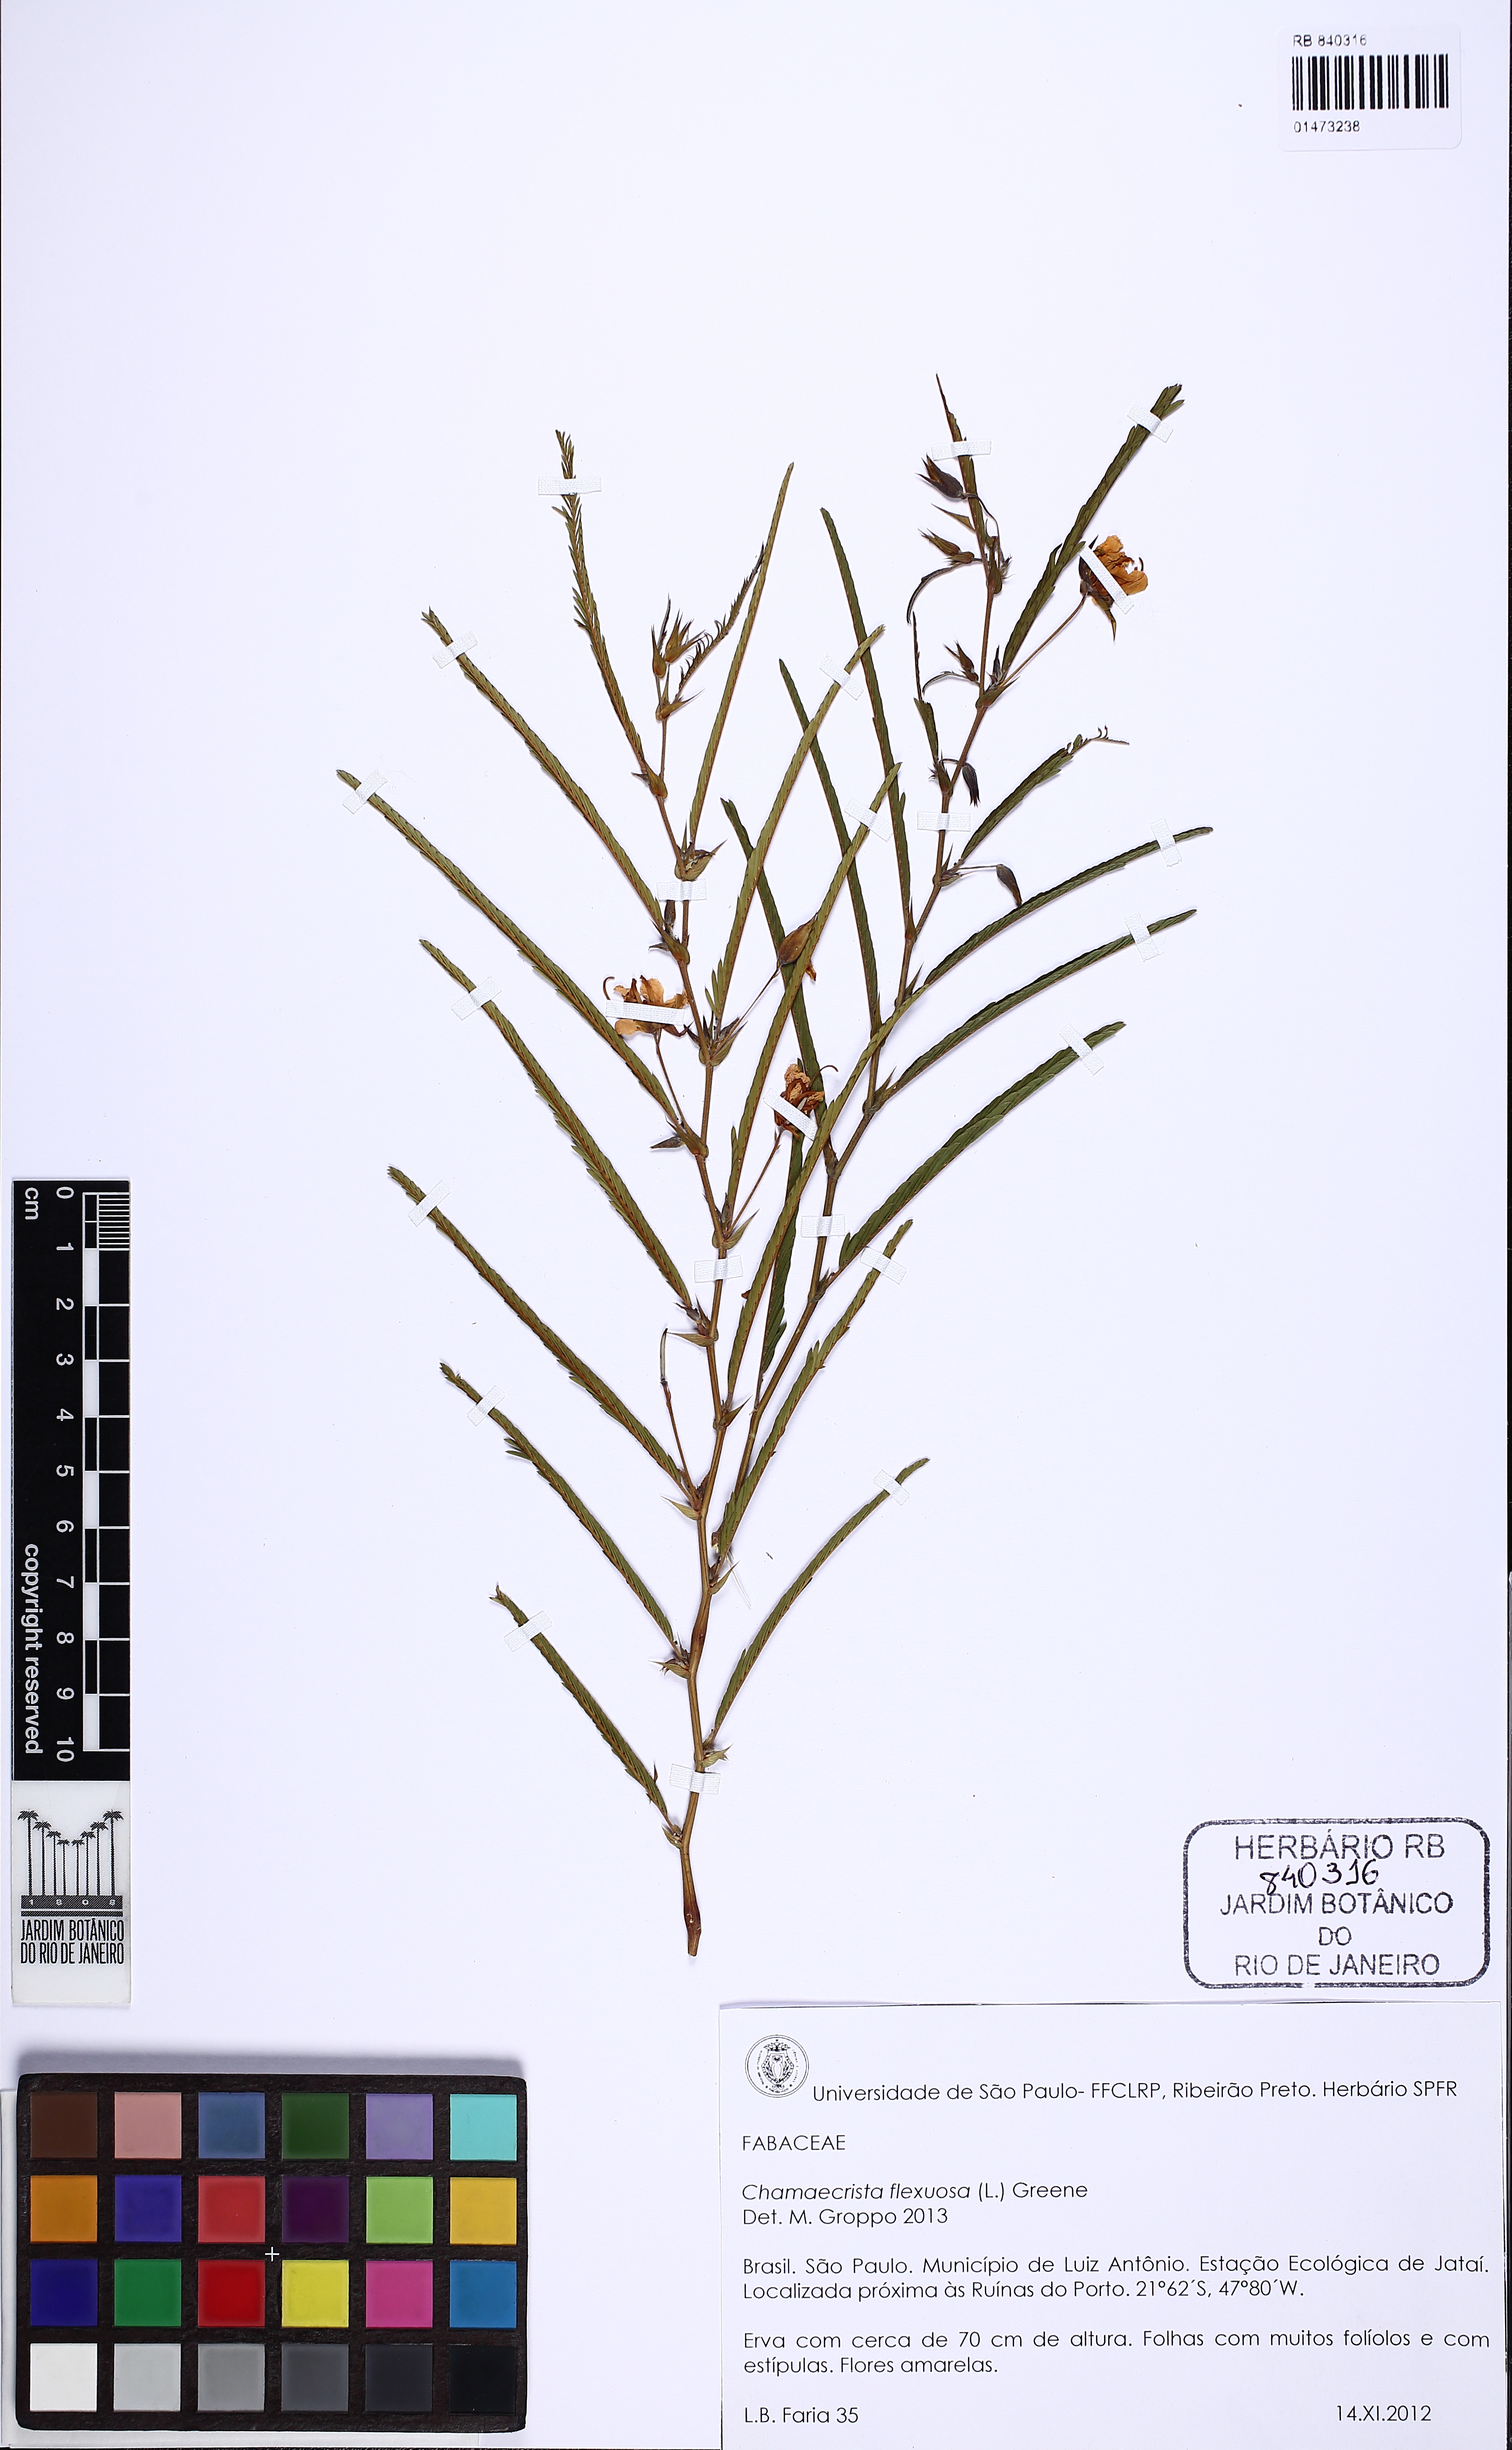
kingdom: Plantae
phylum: Tracheophyta
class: Magnoliopsida
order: Fabales
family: Fabaceae
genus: Chamaecrista
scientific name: Chamaecrista flexuosa
